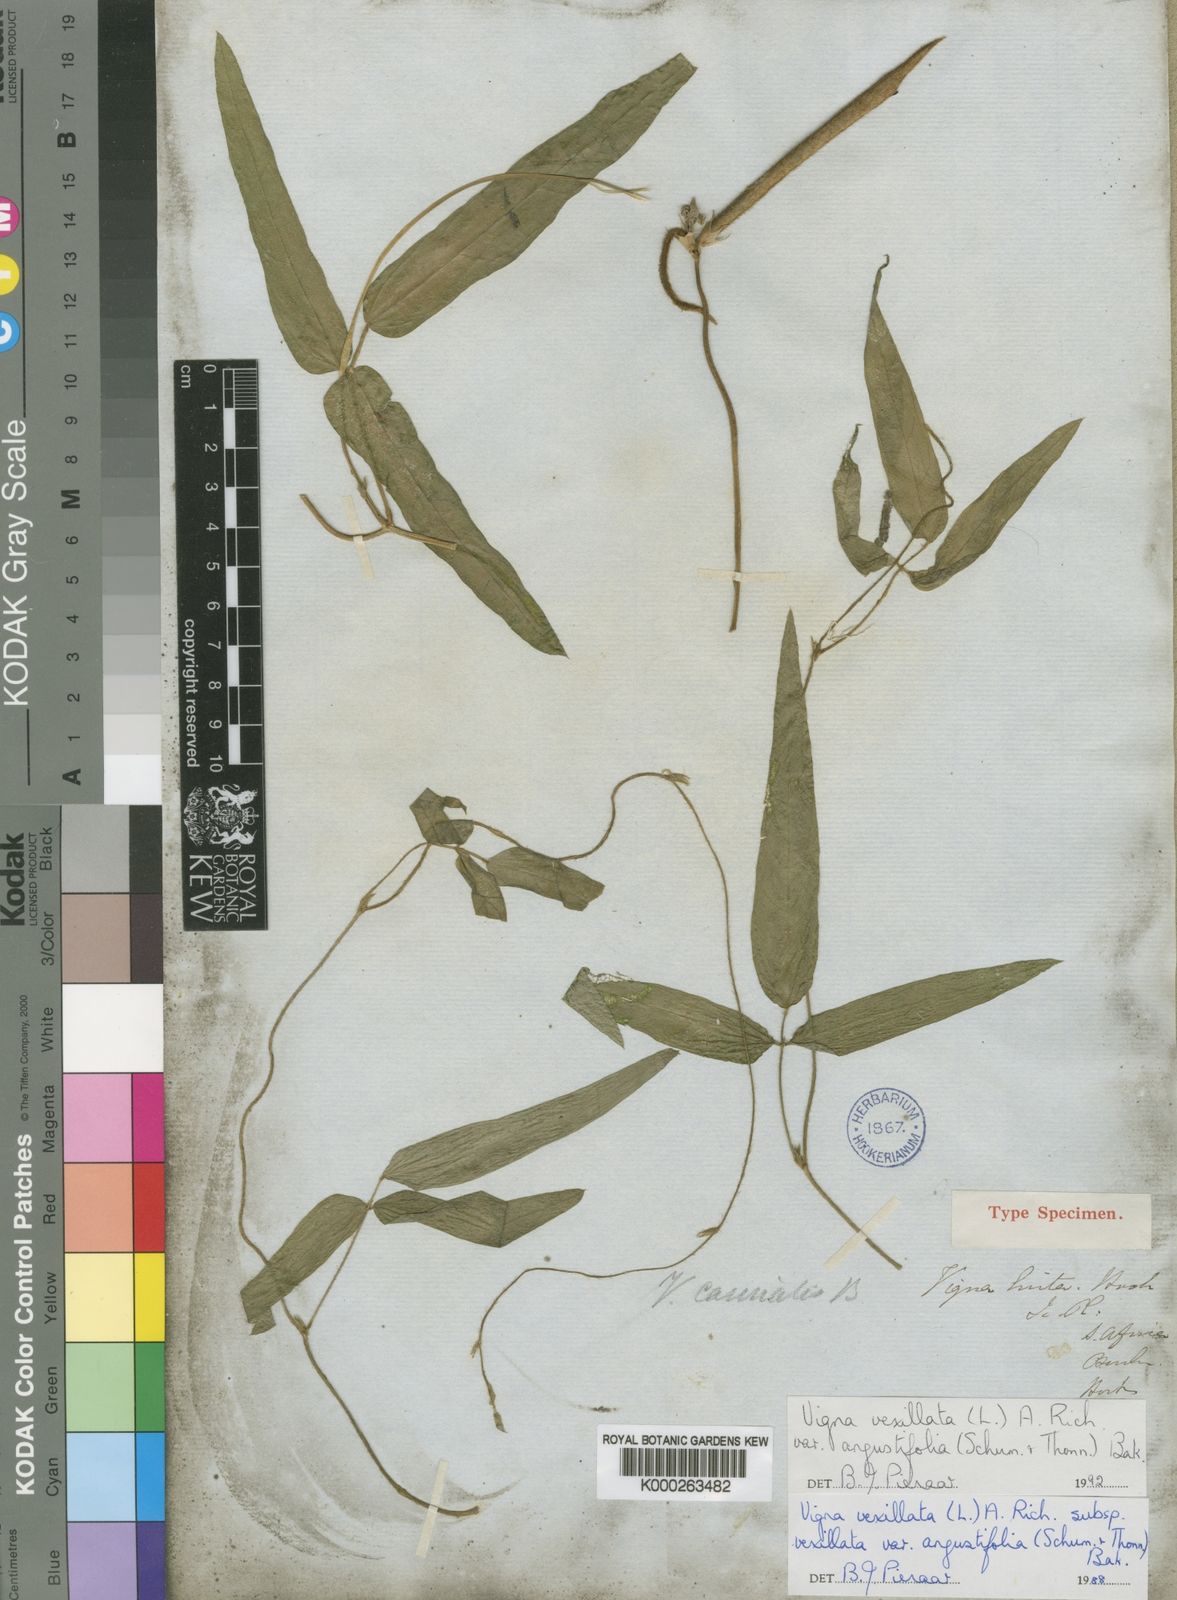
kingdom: Plantae
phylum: Tracheophyta
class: Magnoliopsida
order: Fabales
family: Fabaceae
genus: Vigna
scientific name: Vigna vexillata
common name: Zombi pea
